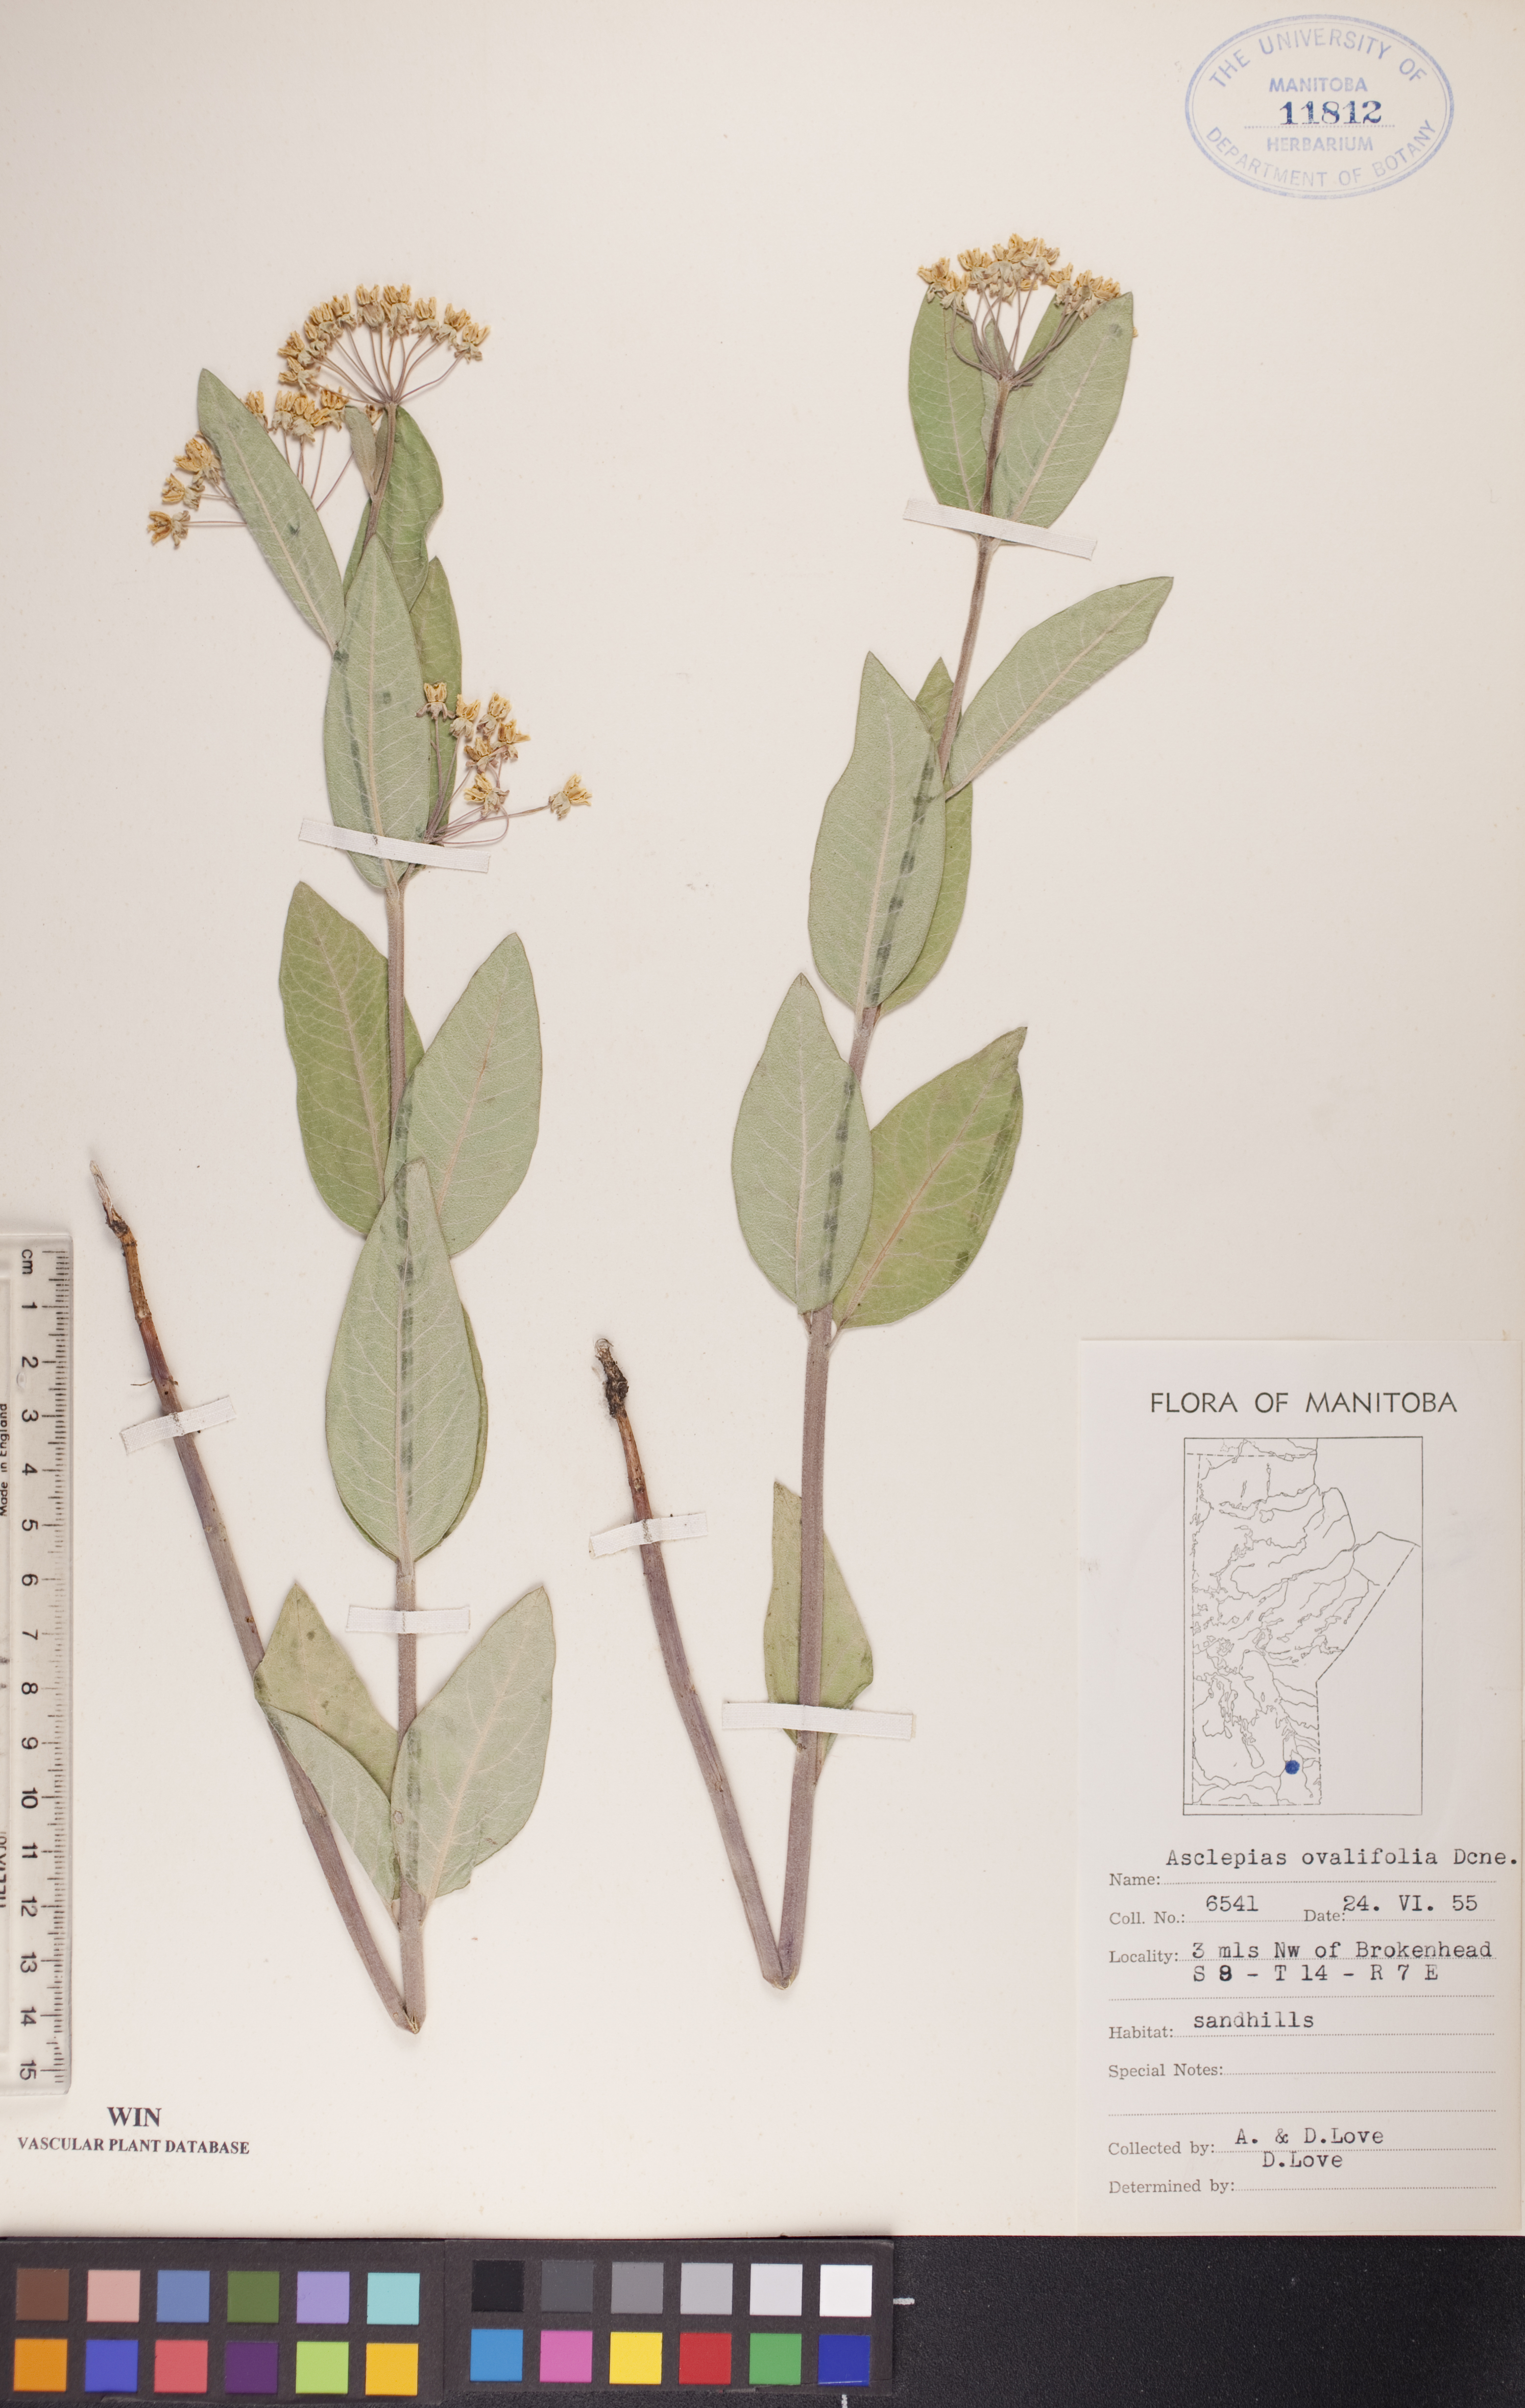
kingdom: Plantae
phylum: Tracheophyta
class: Magnoliopsida
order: Gentianales
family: Apocynaceae
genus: Asclepias
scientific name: Asclepias ovalifolia
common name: Dwarf milkweed
